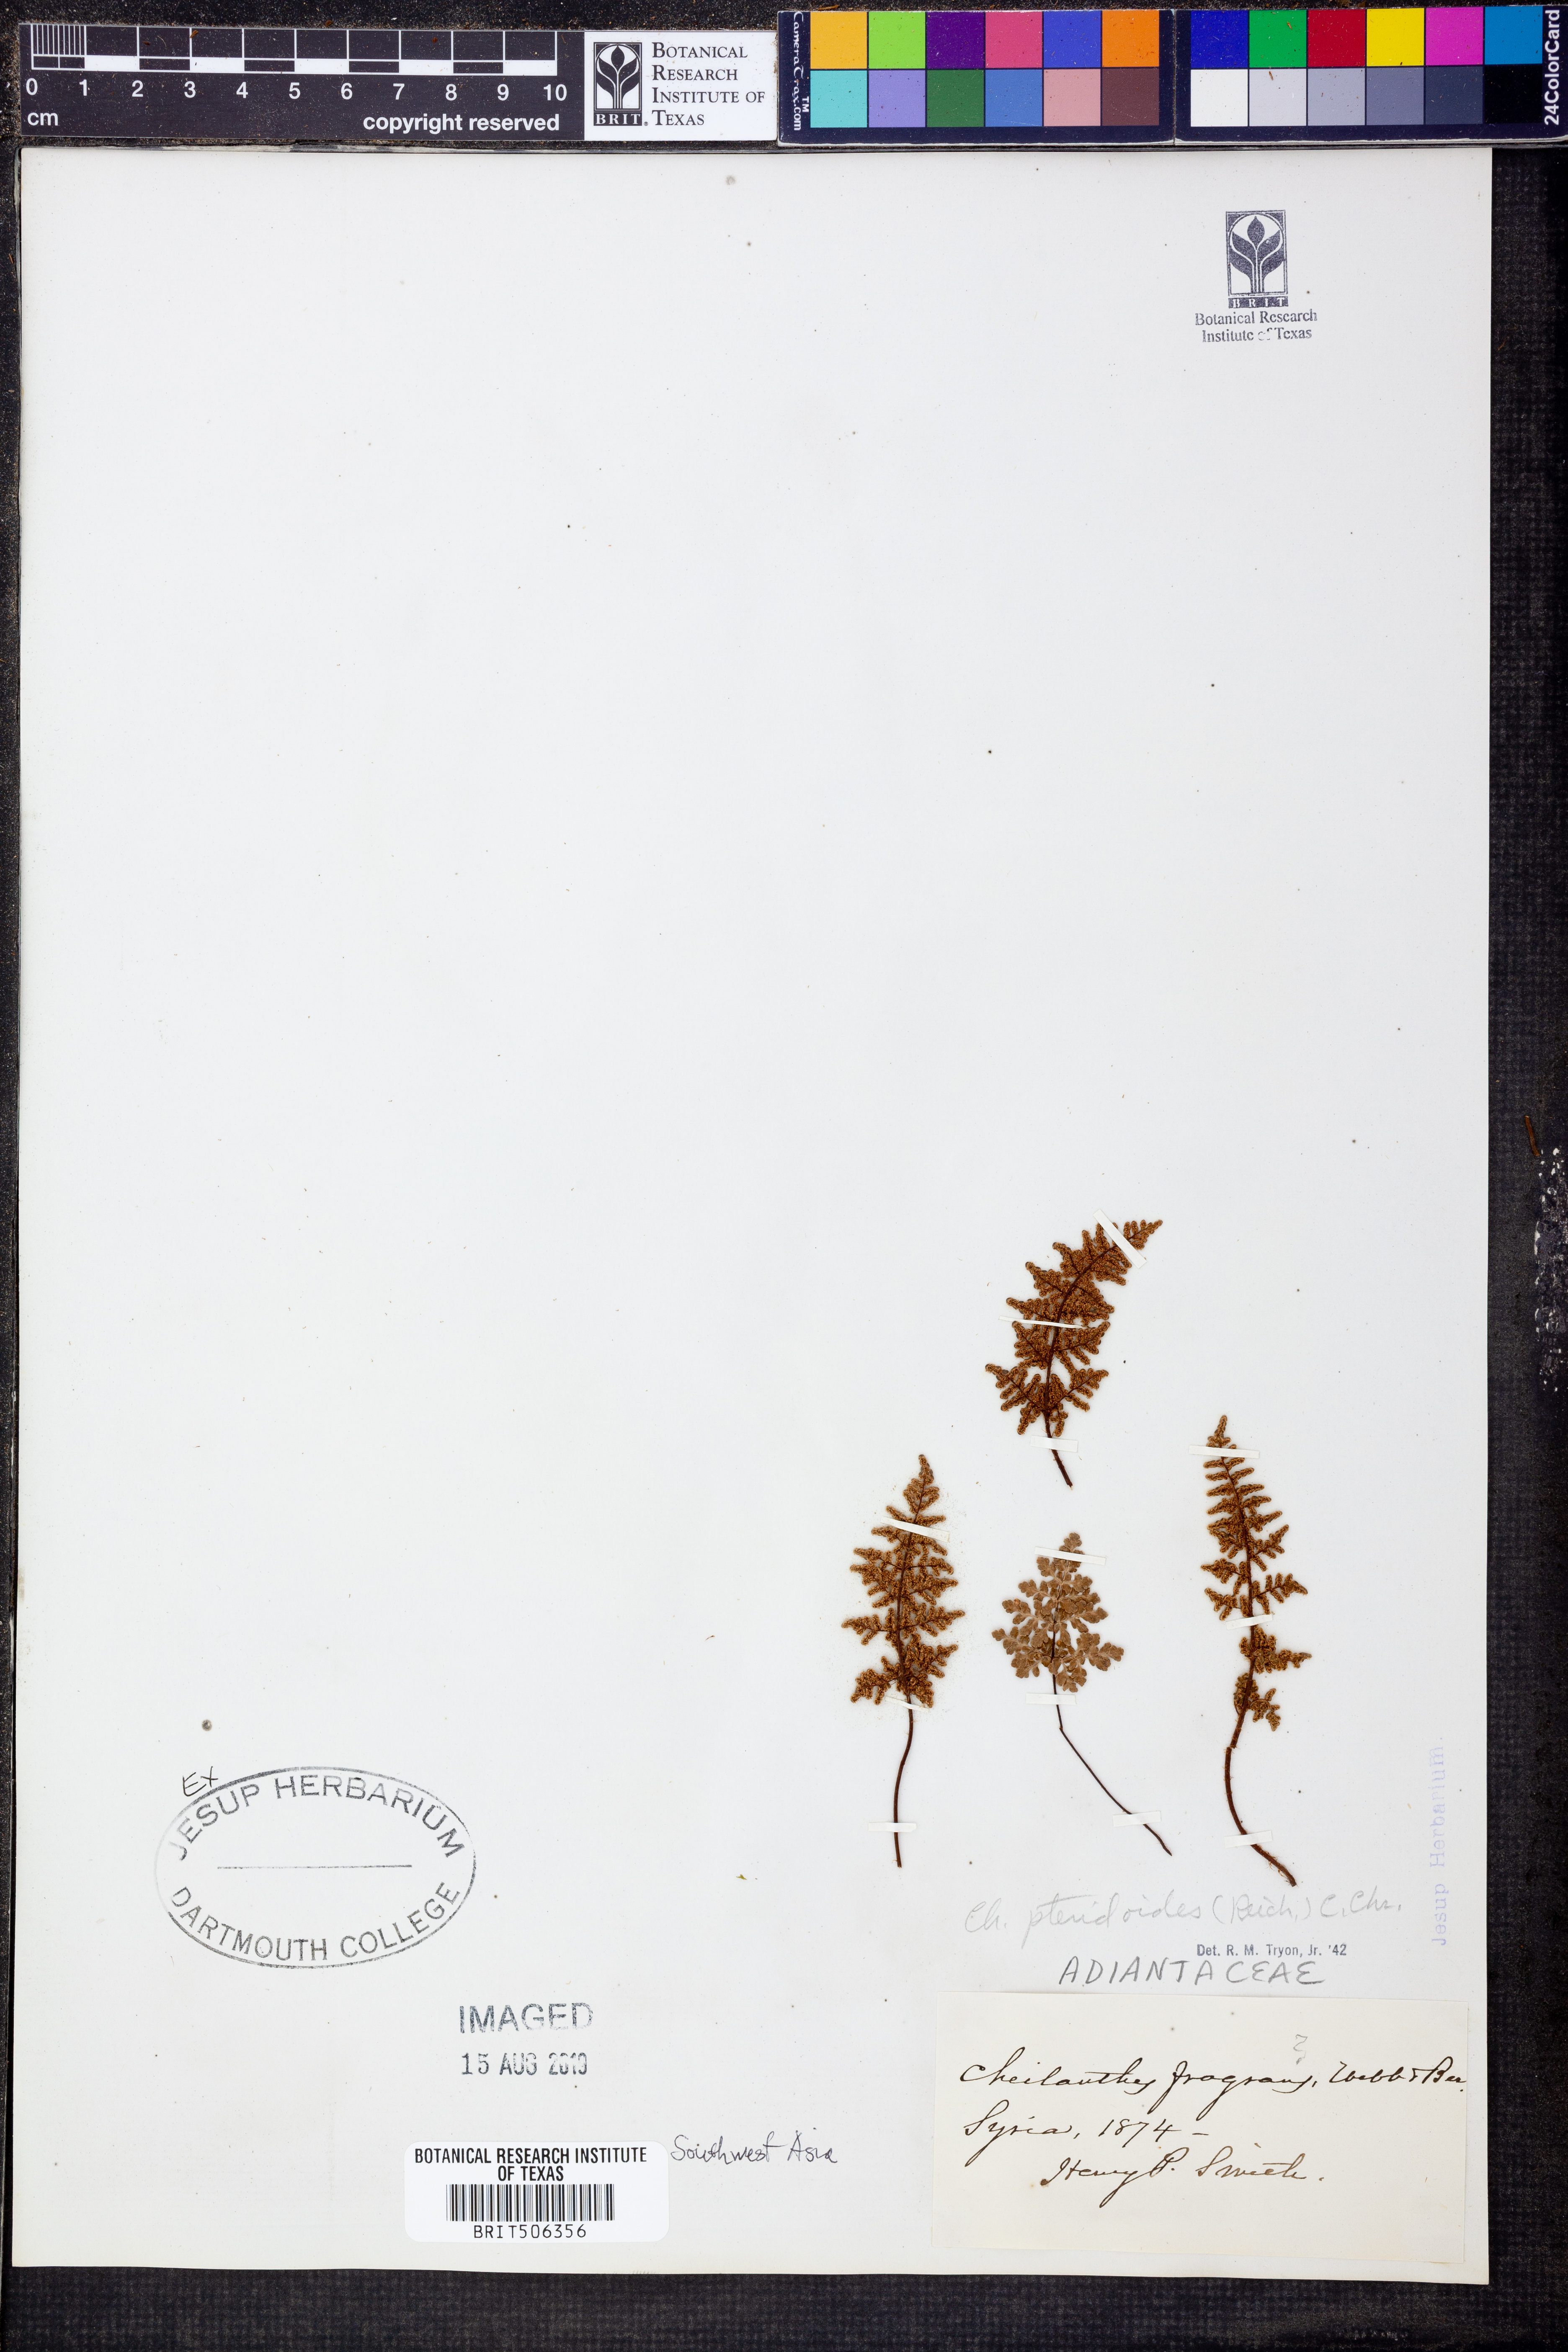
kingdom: Plantae
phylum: Tracheophyta
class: Polypodiopsida
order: Polypodiales
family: Pteridaceae
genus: Oeosporangium
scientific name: Oeosporangium pteridioides
